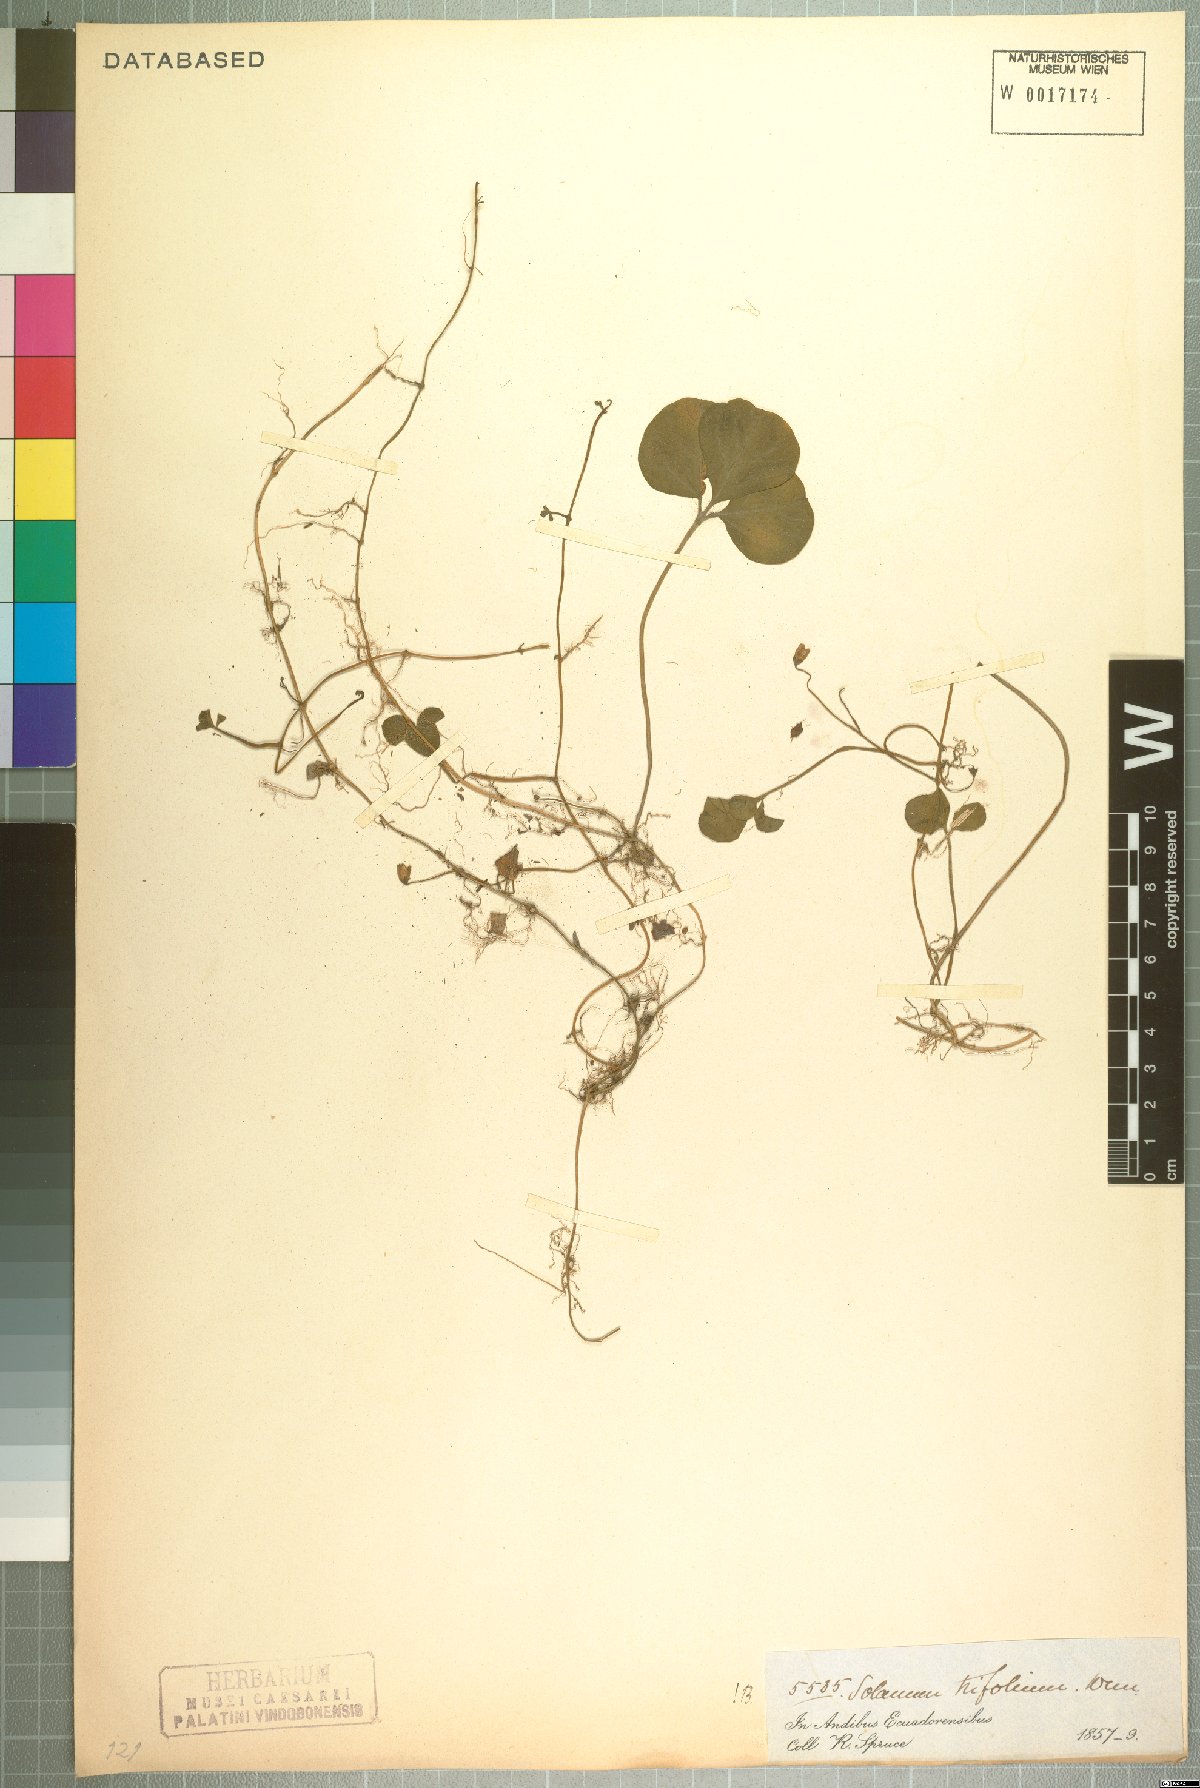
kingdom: Plantae
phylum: Tracheophyta
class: Magnoliopsida
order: Solanales
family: Solanaceae
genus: Solanum
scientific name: Solanum trifolium
